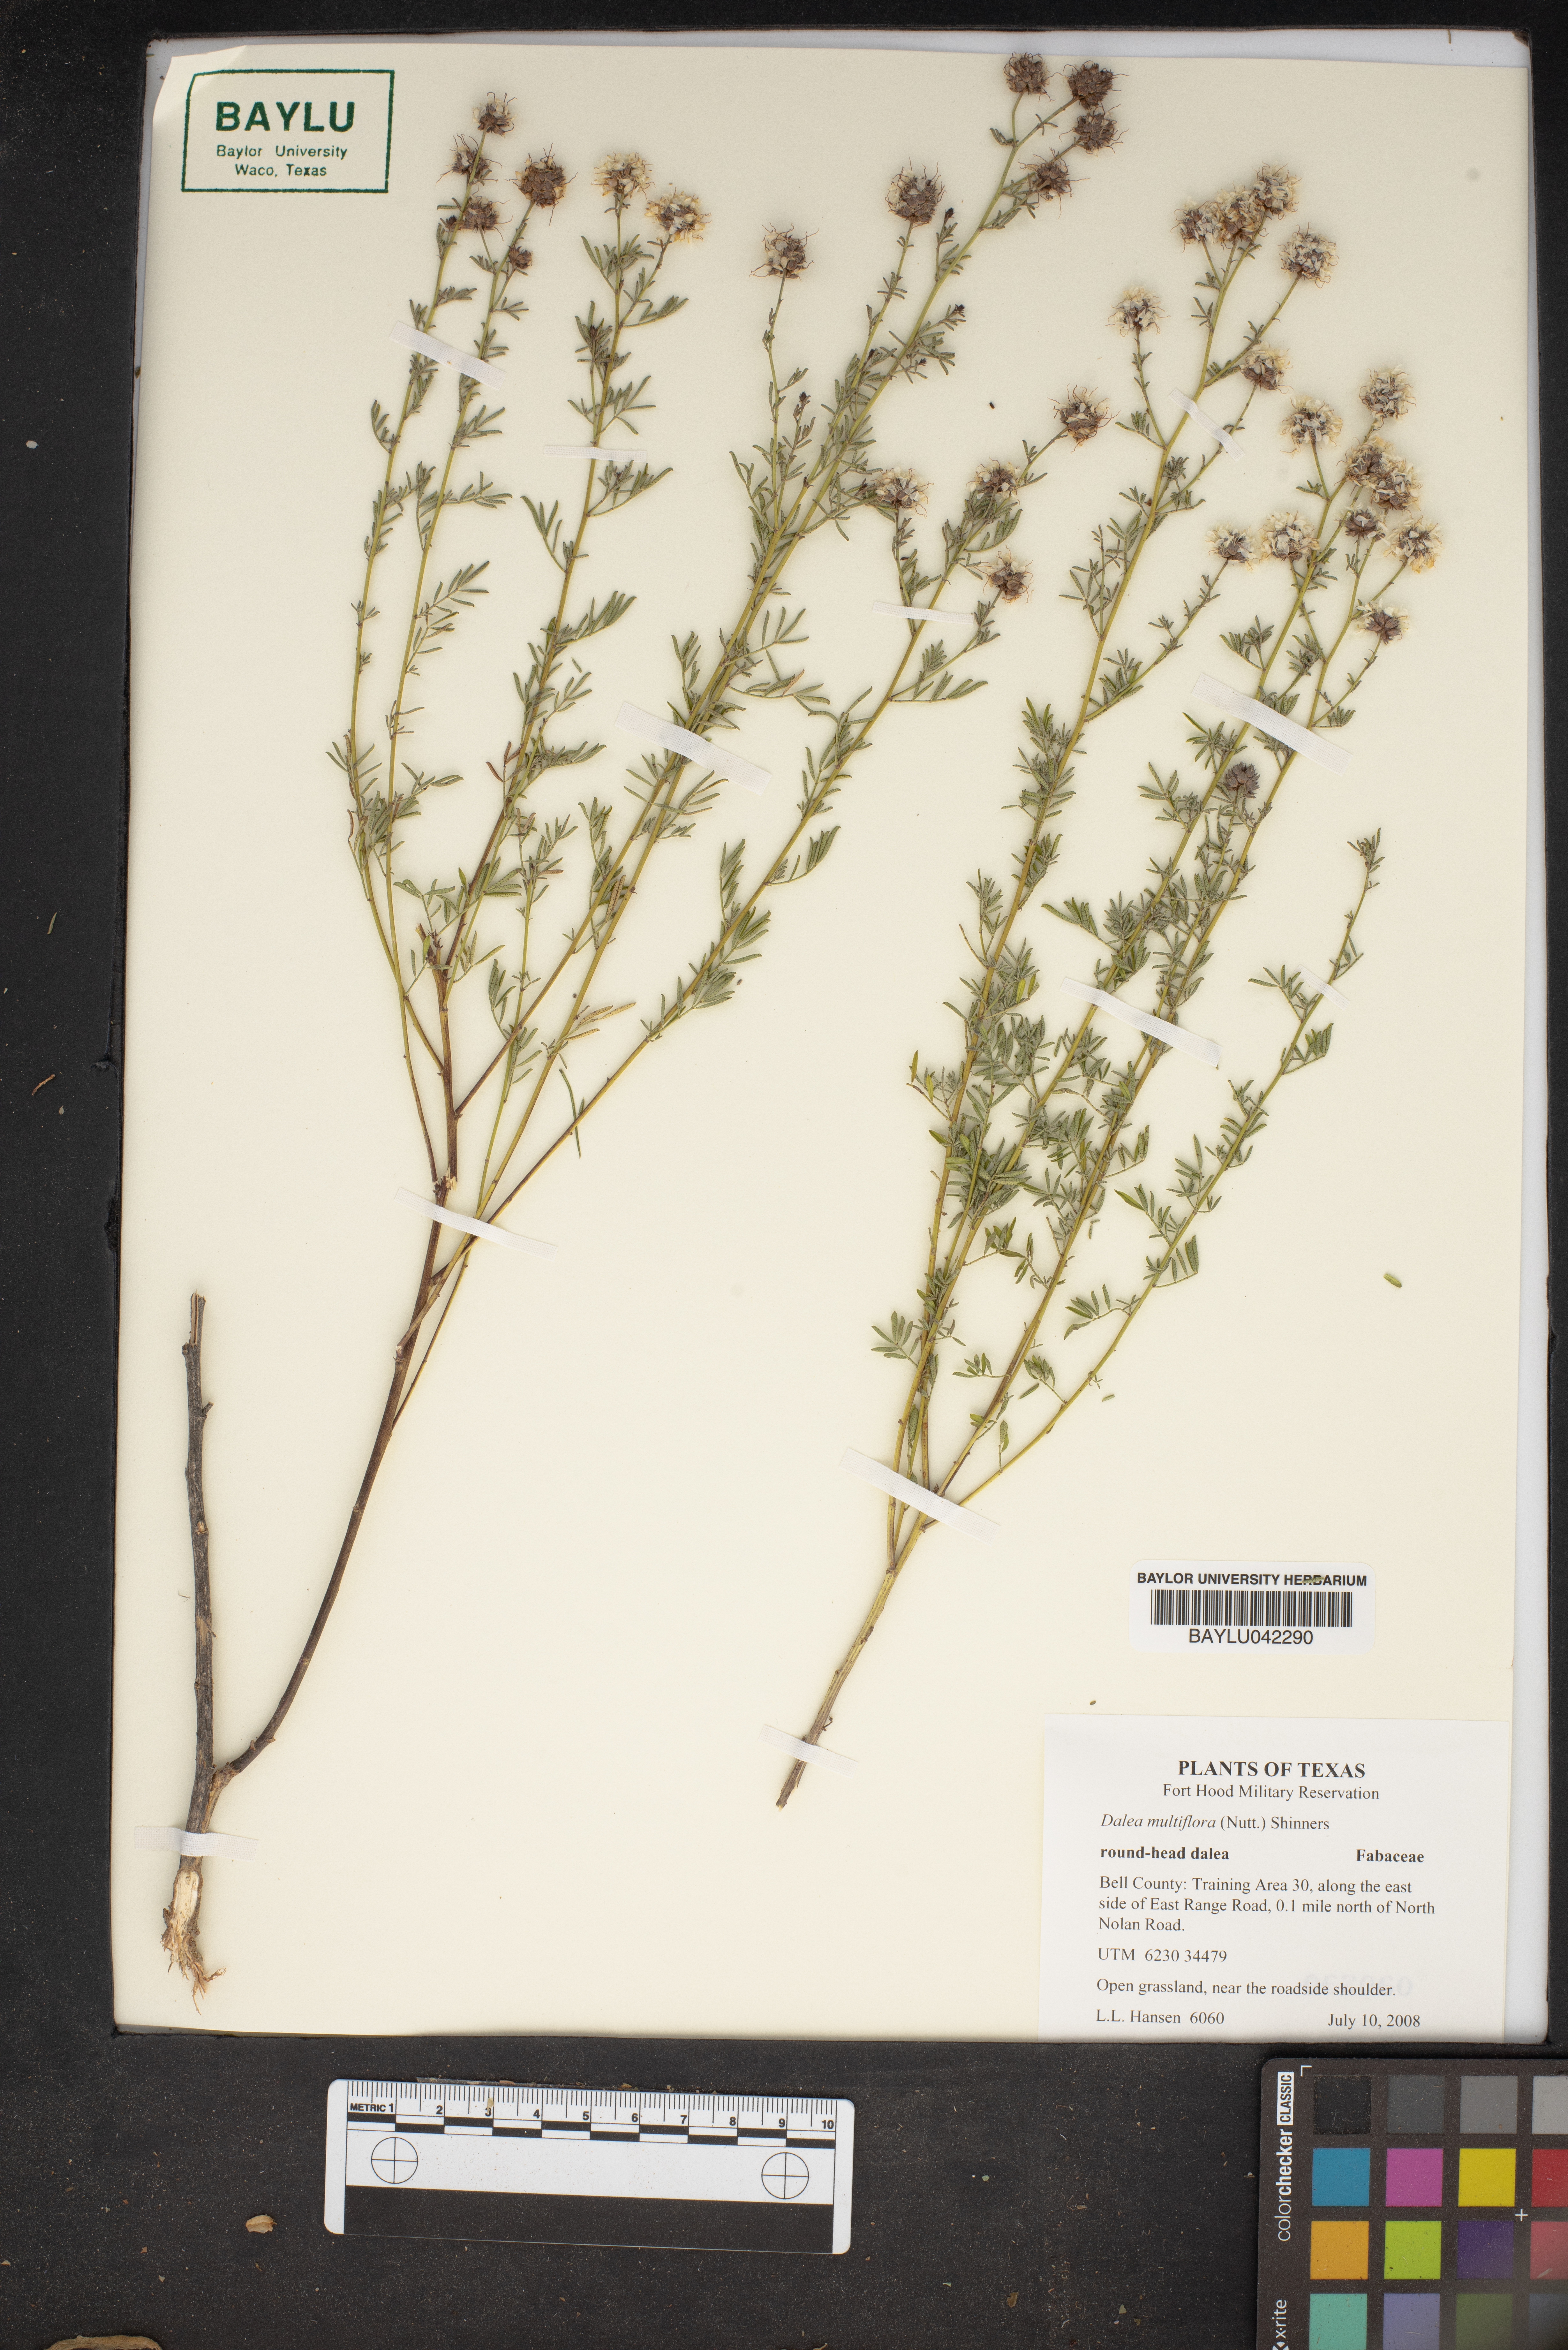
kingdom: Plantae
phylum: Tracheophyta
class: Magnoliopsida
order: Fabales
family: Fabaceae
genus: Dalea
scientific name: Dalea multiflora
